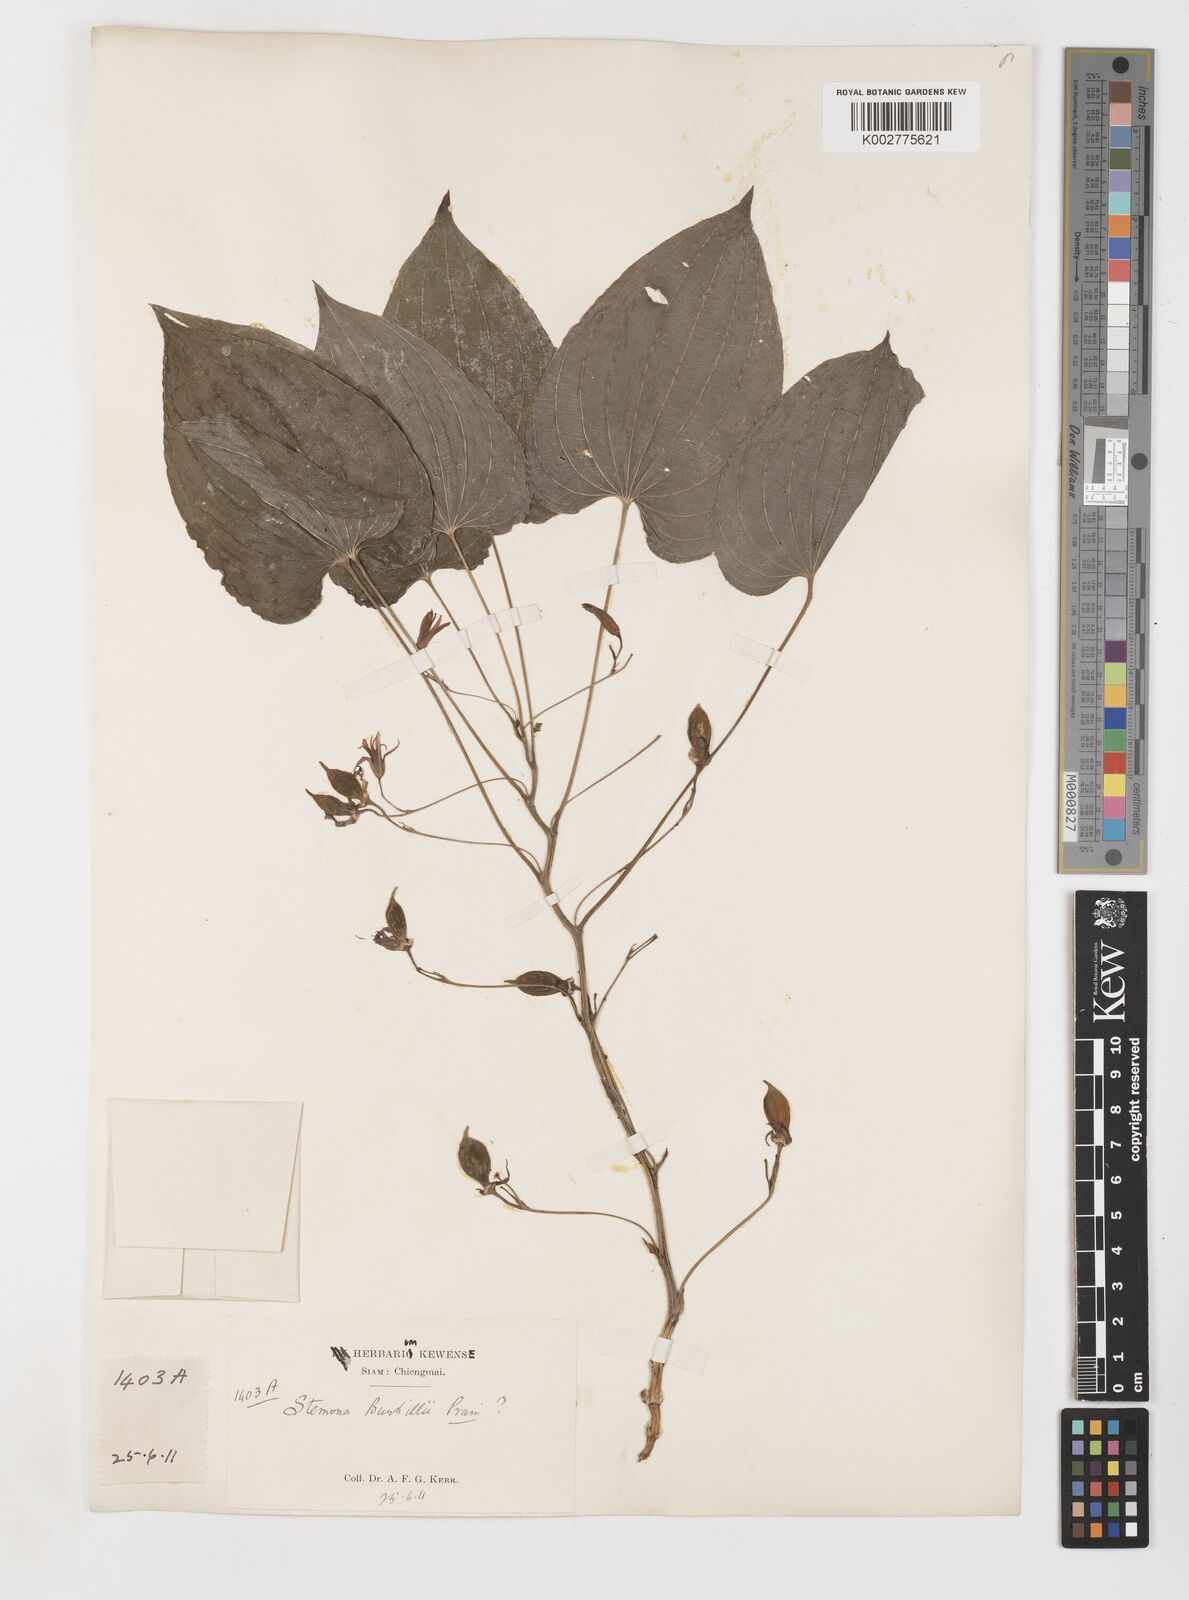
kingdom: Plantae
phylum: Tracheophyta
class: Liliopsida
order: Pandanales
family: Stemonaceae
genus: Stemona
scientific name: Stemona burkillii
